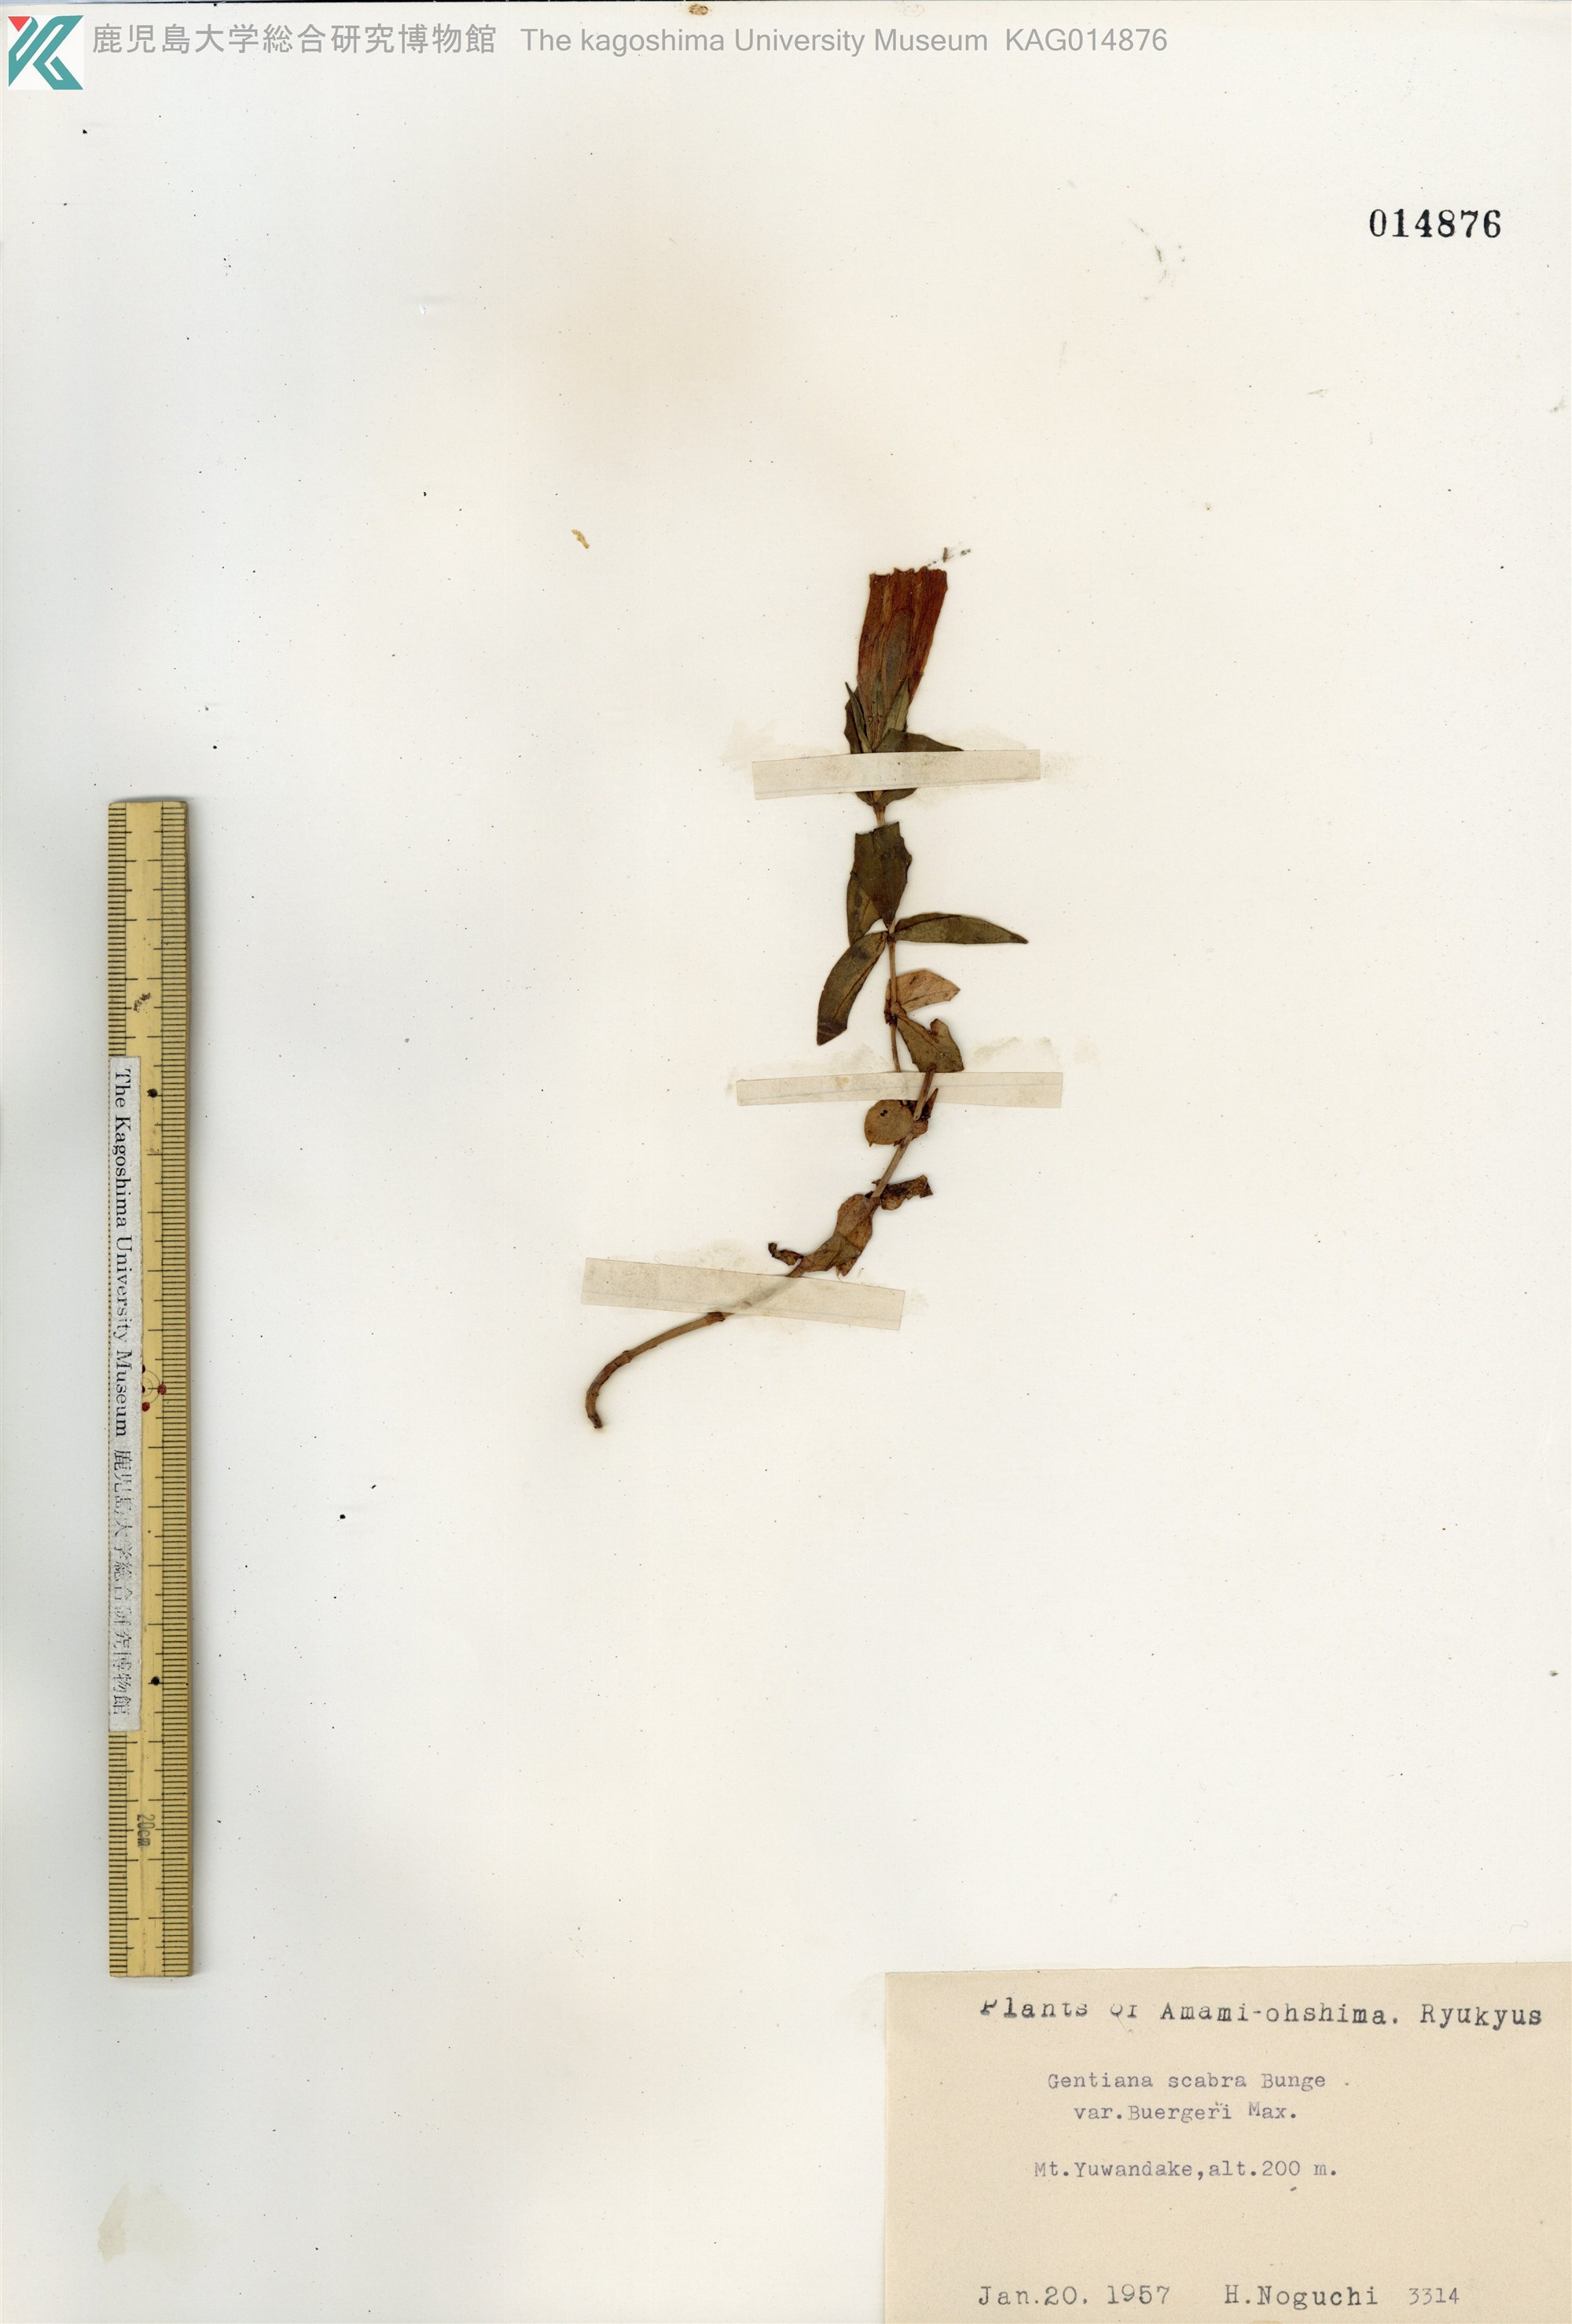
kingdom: Plantae
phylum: Tracheophyta
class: Magnoliopsida
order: Gentianales
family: Gentianaceae
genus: Gentiana
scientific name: Gentiana scabra
